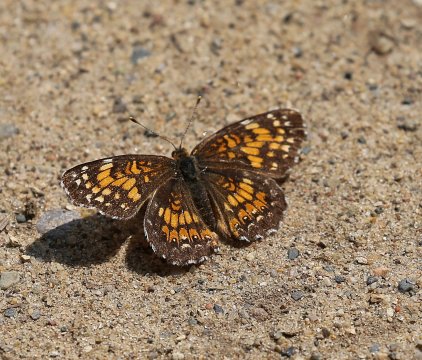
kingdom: Animalia
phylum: Arthropoda
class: Insecta
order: Lepidoptera
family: Nymphalidae
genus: Chlosyne
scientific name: Chlosyne harrisii
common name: Harris's Checkerspot
